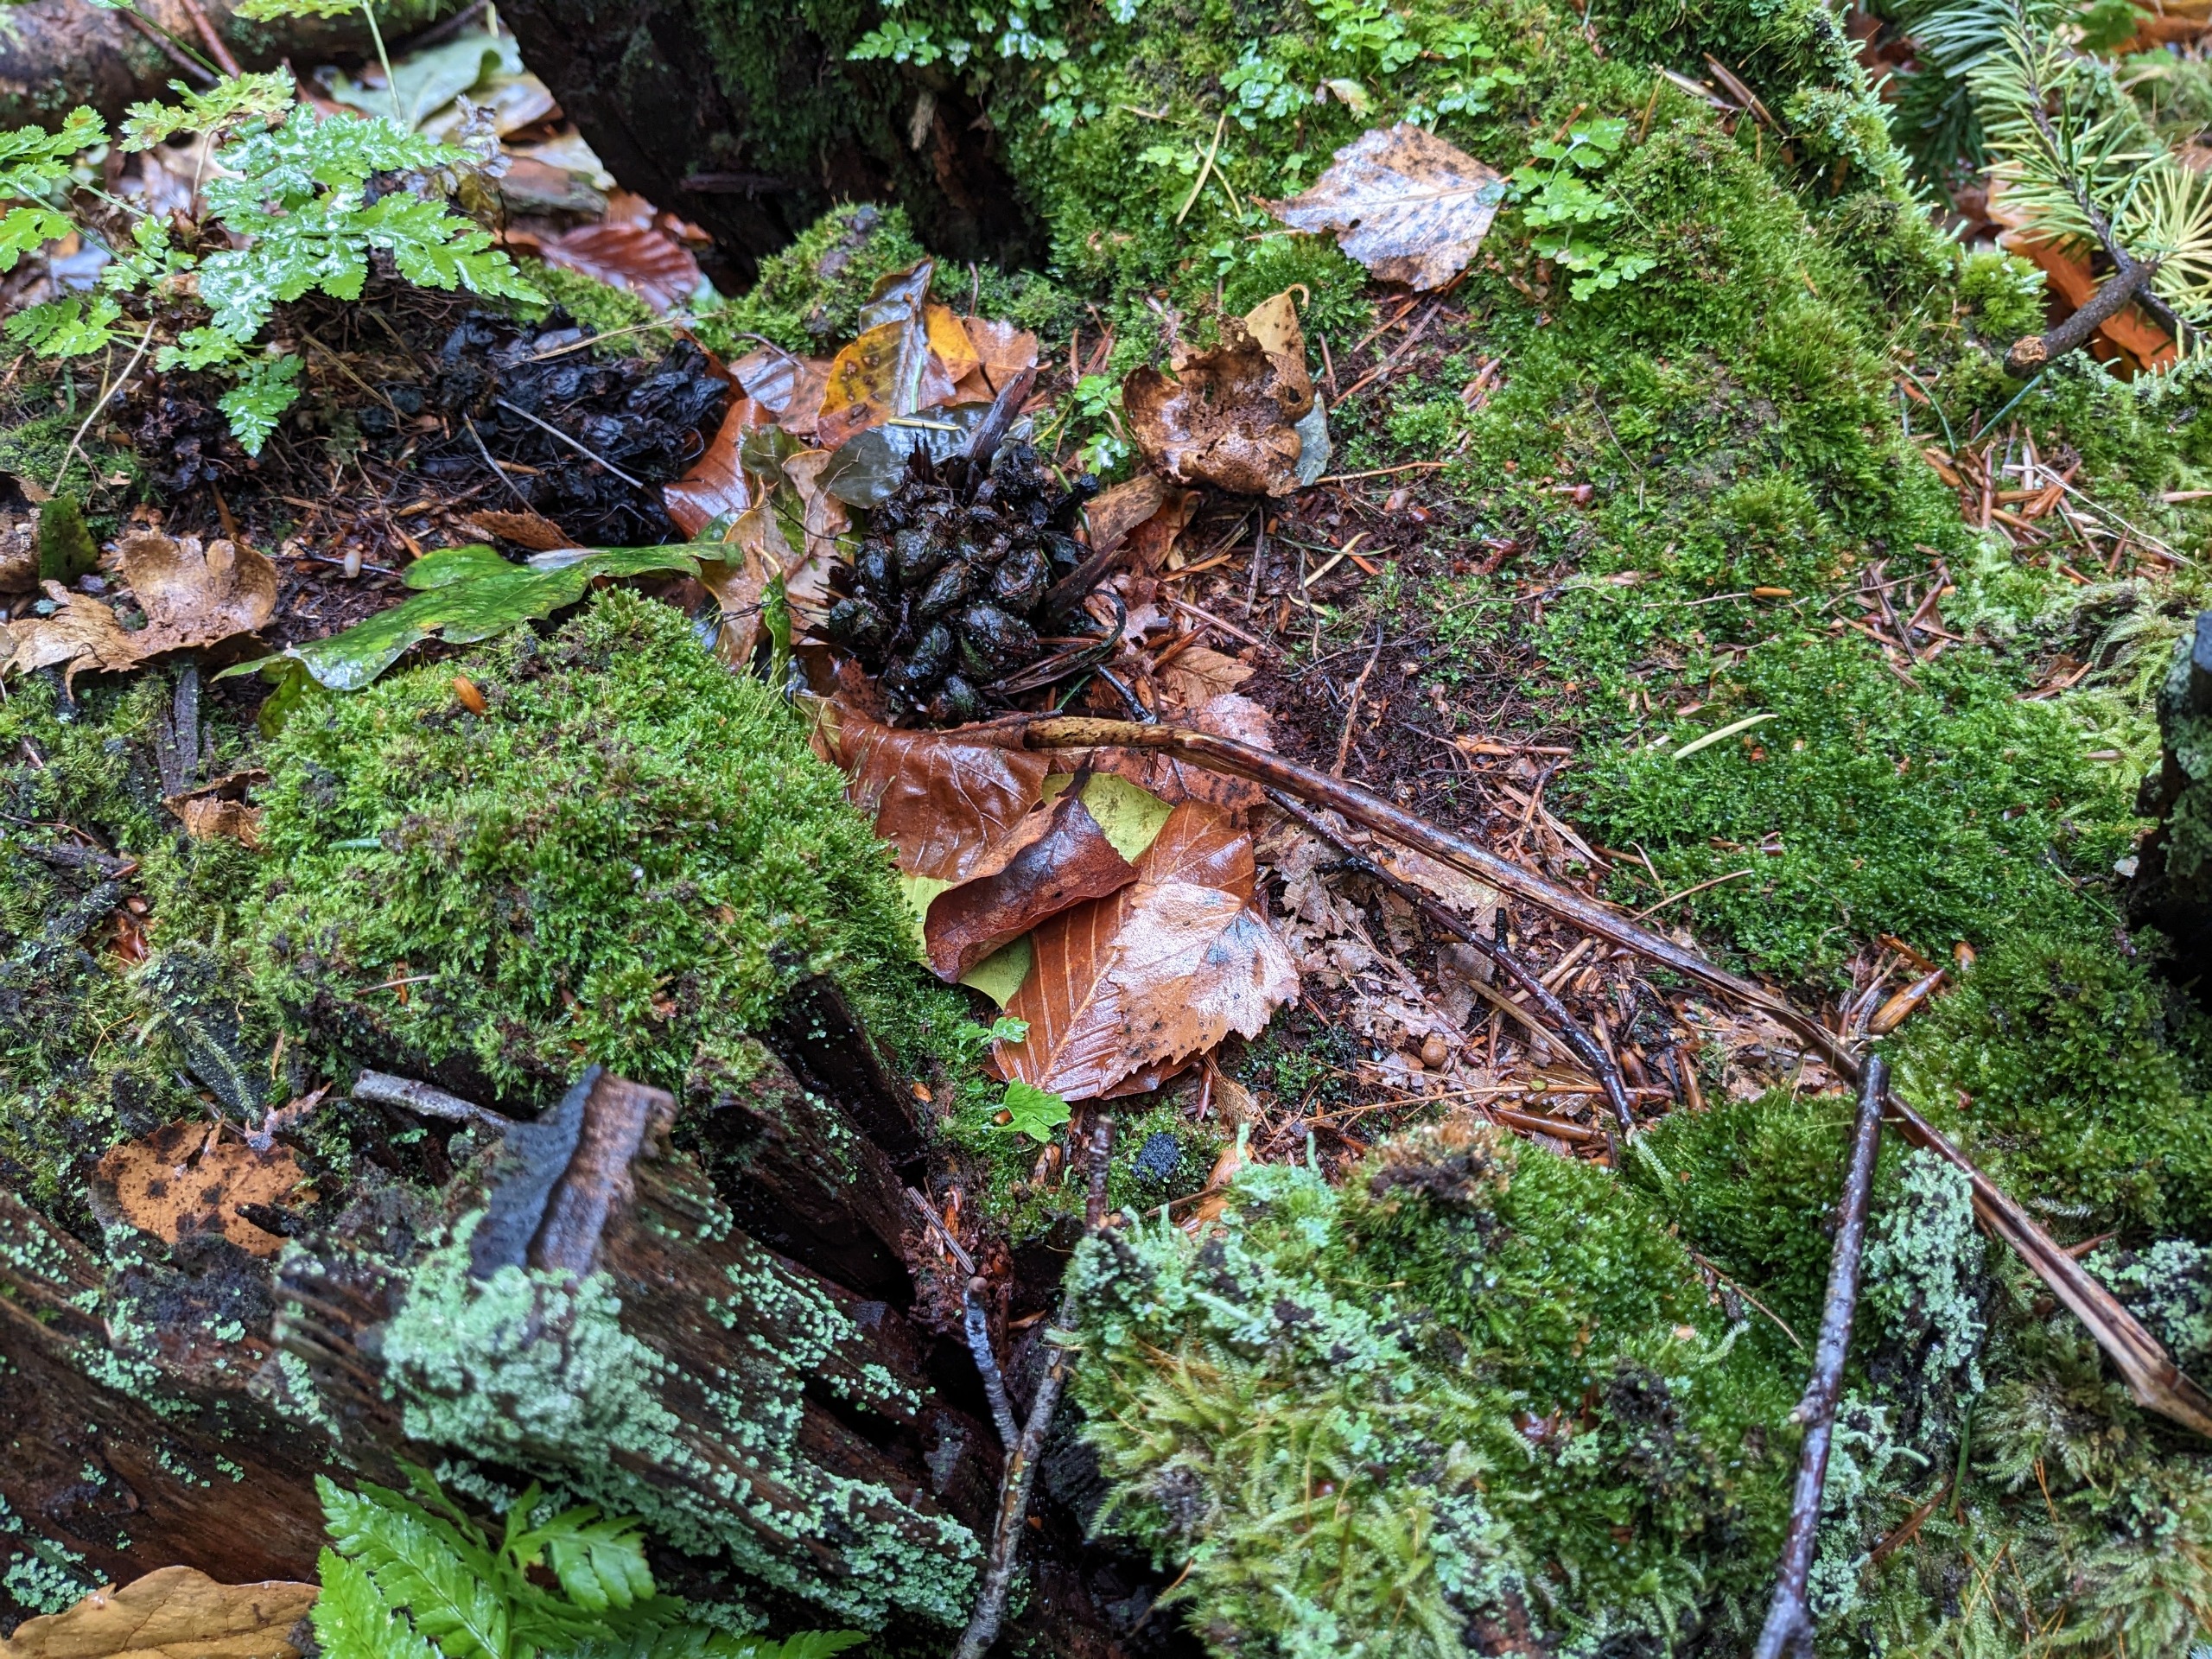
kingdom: Plantae
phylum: Bryophyta
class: Polytrichopsida
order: Tetraphidales
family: Tetraphidaceae
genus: Tetraphis
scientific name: Tetraphis pellucida
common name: Almindelig firtand
